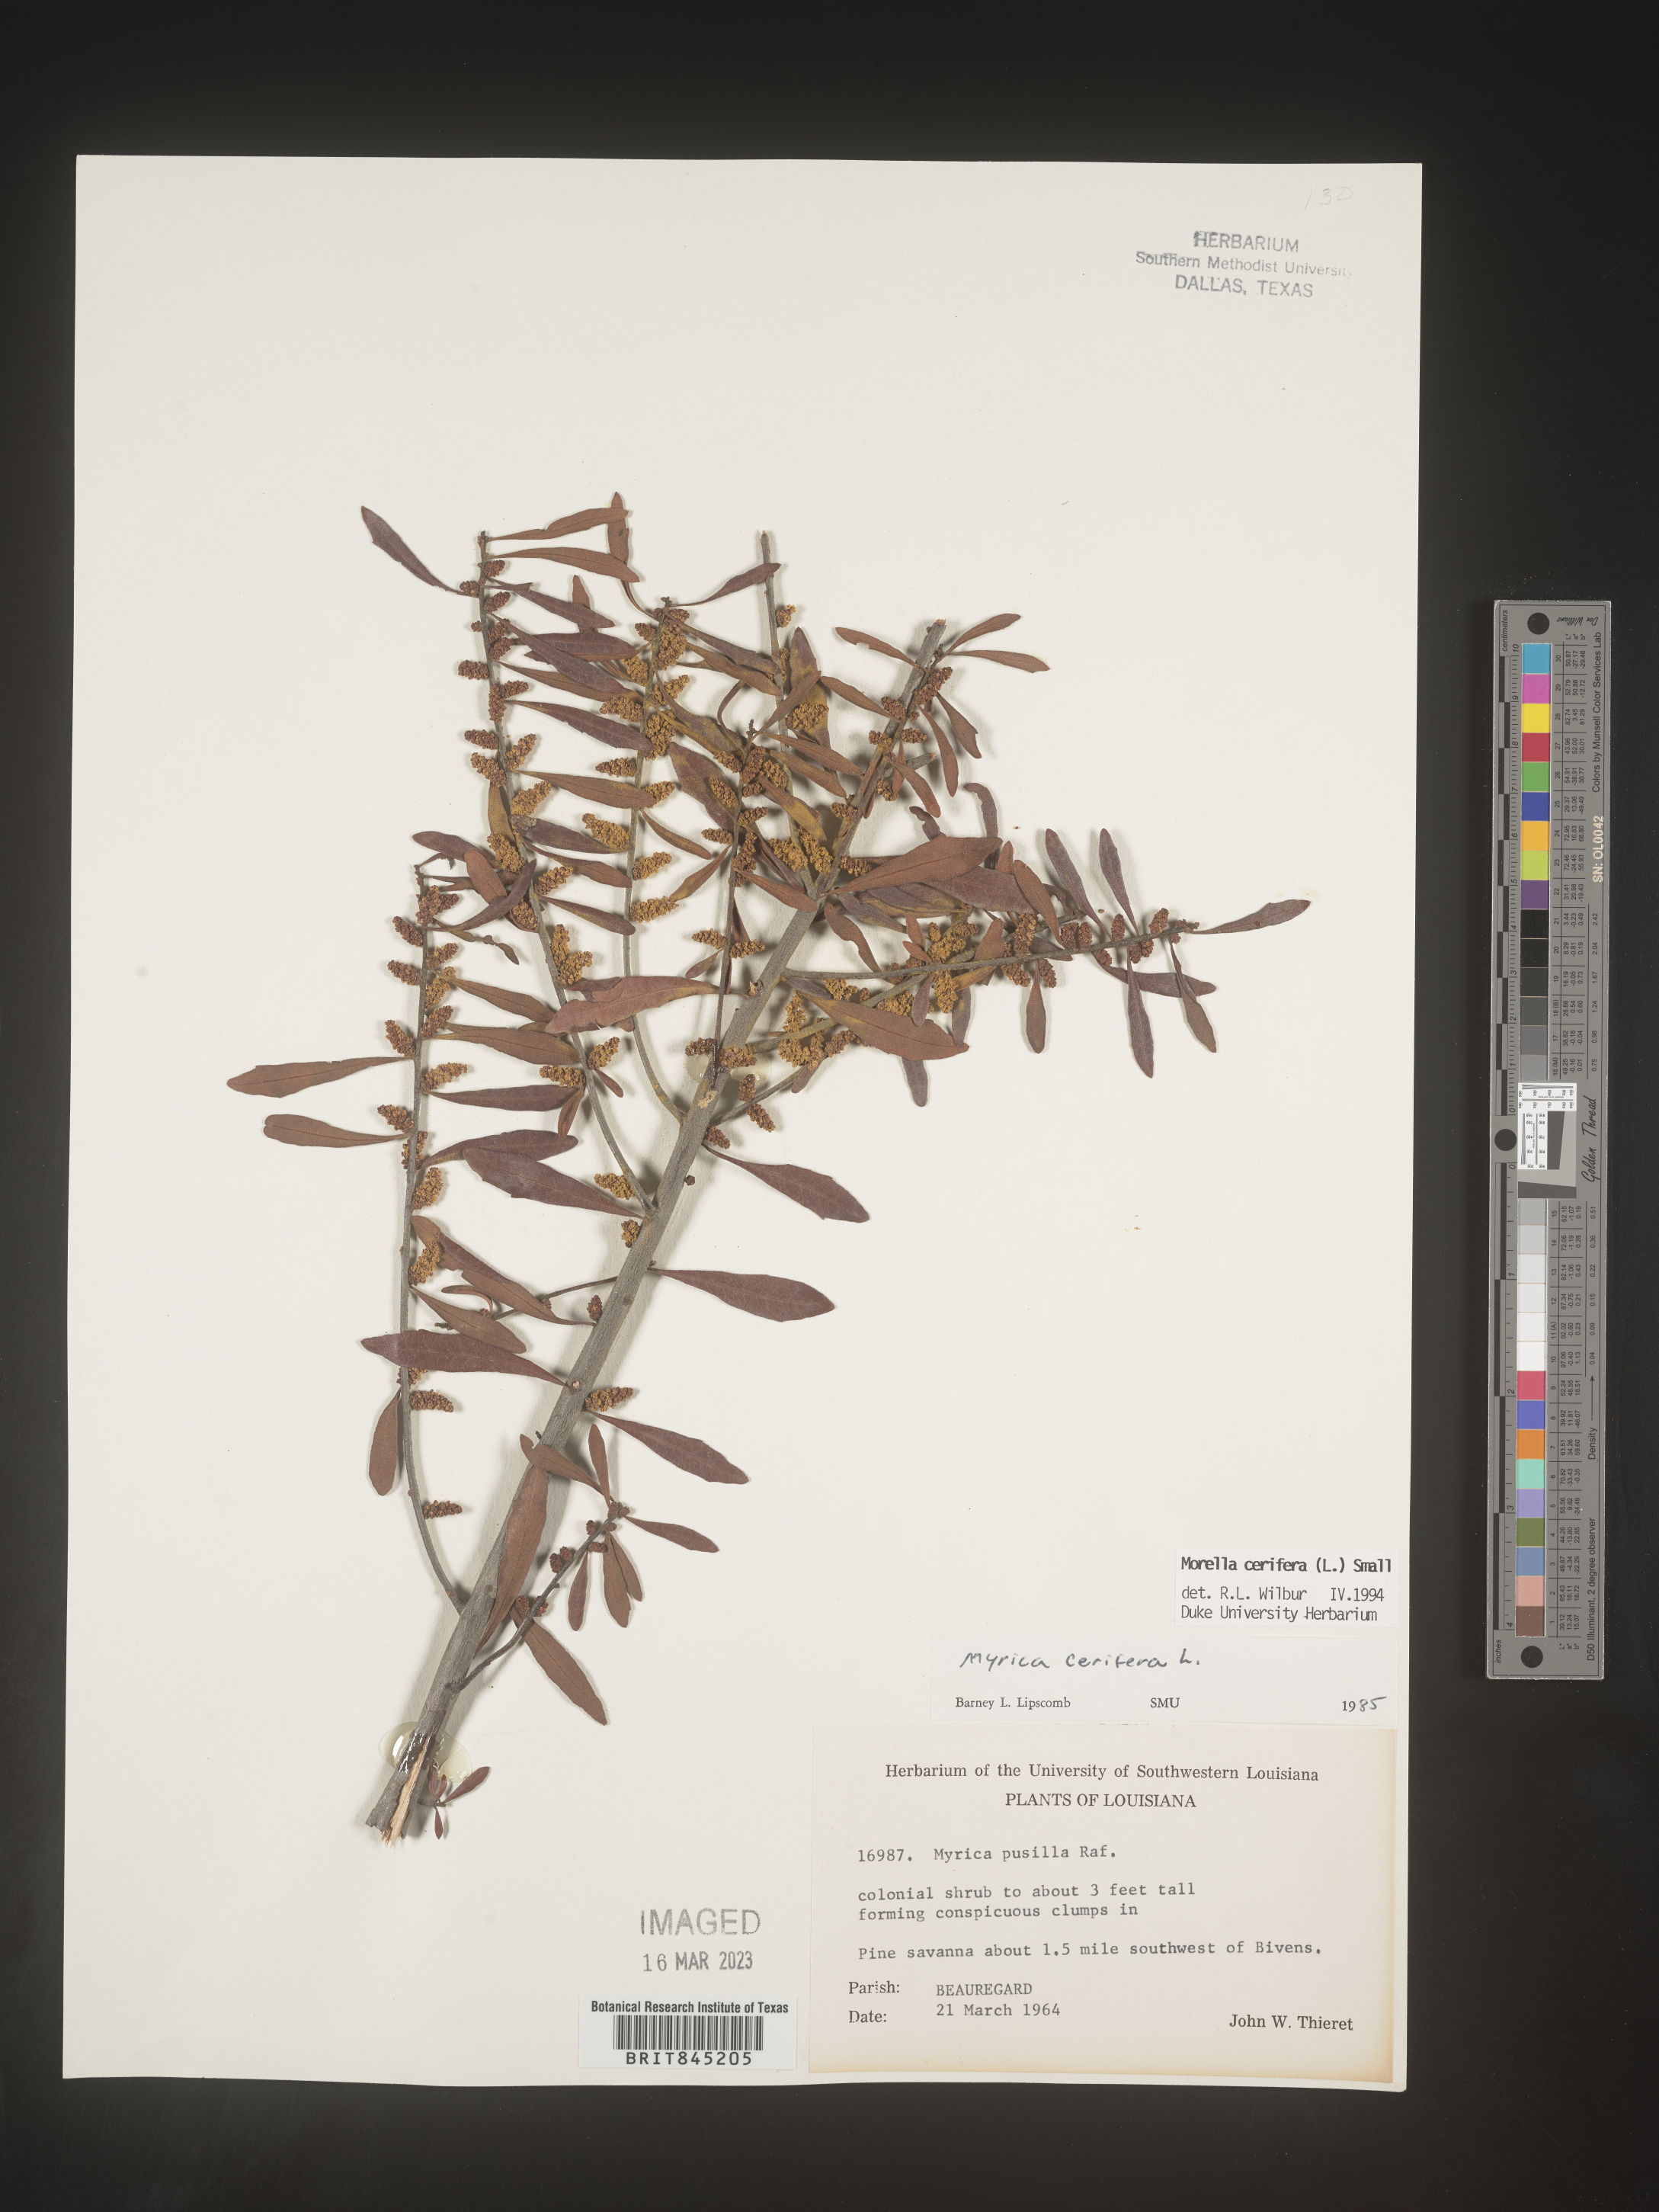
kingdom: Plantae
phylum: Tracheophyta
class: Magnoliopsida
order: Fagales
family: Myricaceae
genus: Morella
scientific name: Morella cerifera
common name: Wax myrtle
